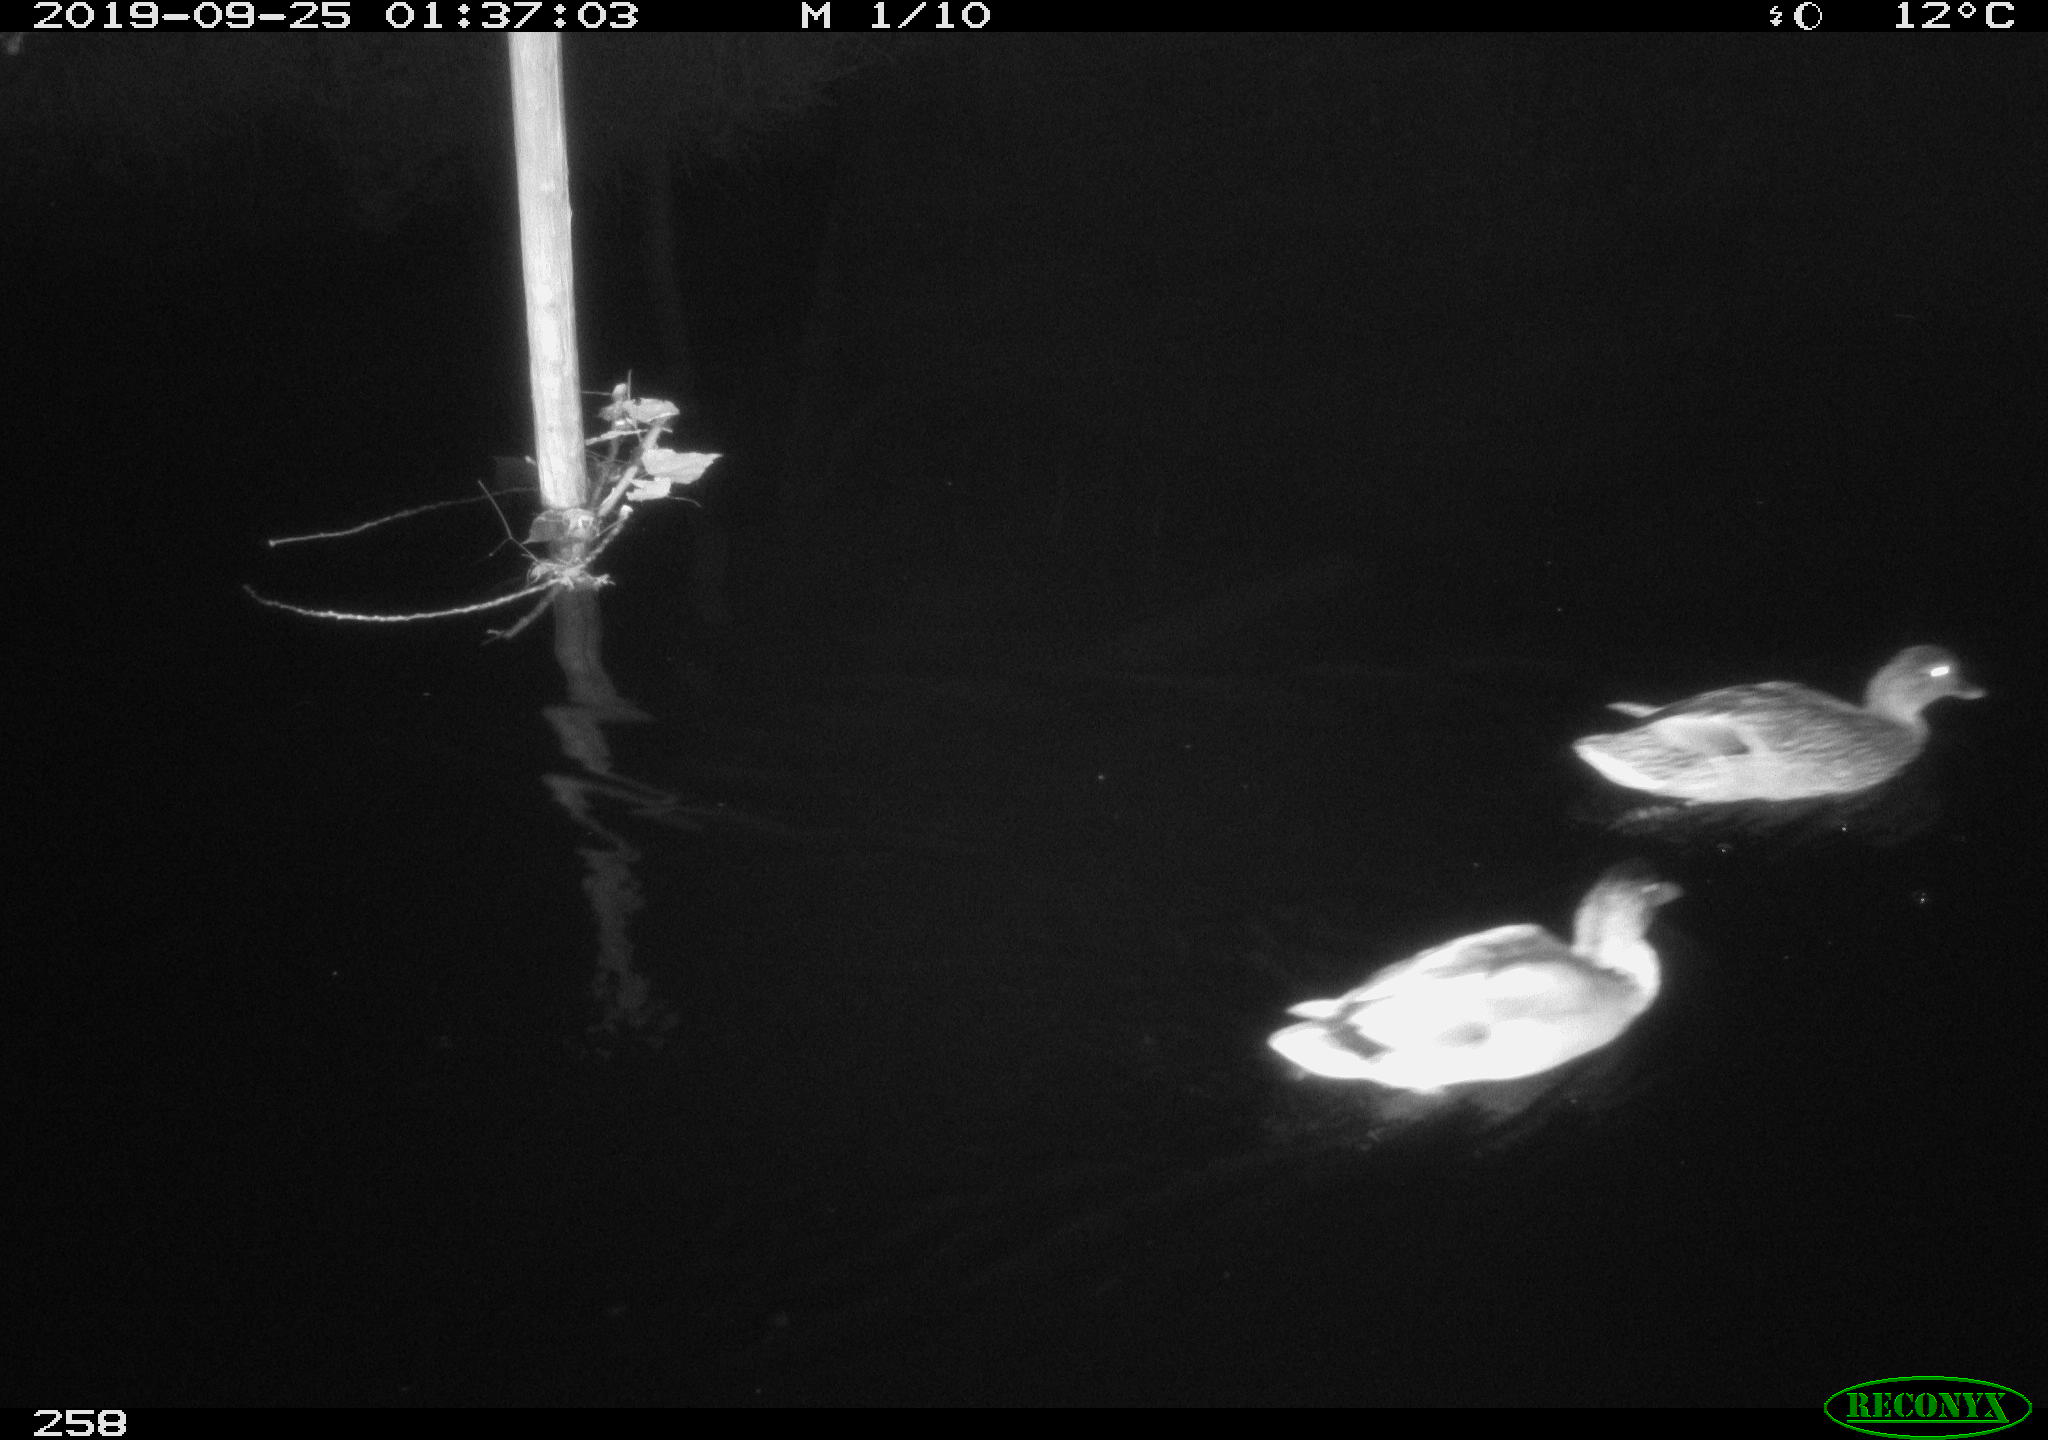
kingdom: Animalia
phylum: Chordata
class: Aves
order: Anseriformes
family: Anatidae
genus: Anas
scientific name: Anas platyrhynchos
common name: Mallard
